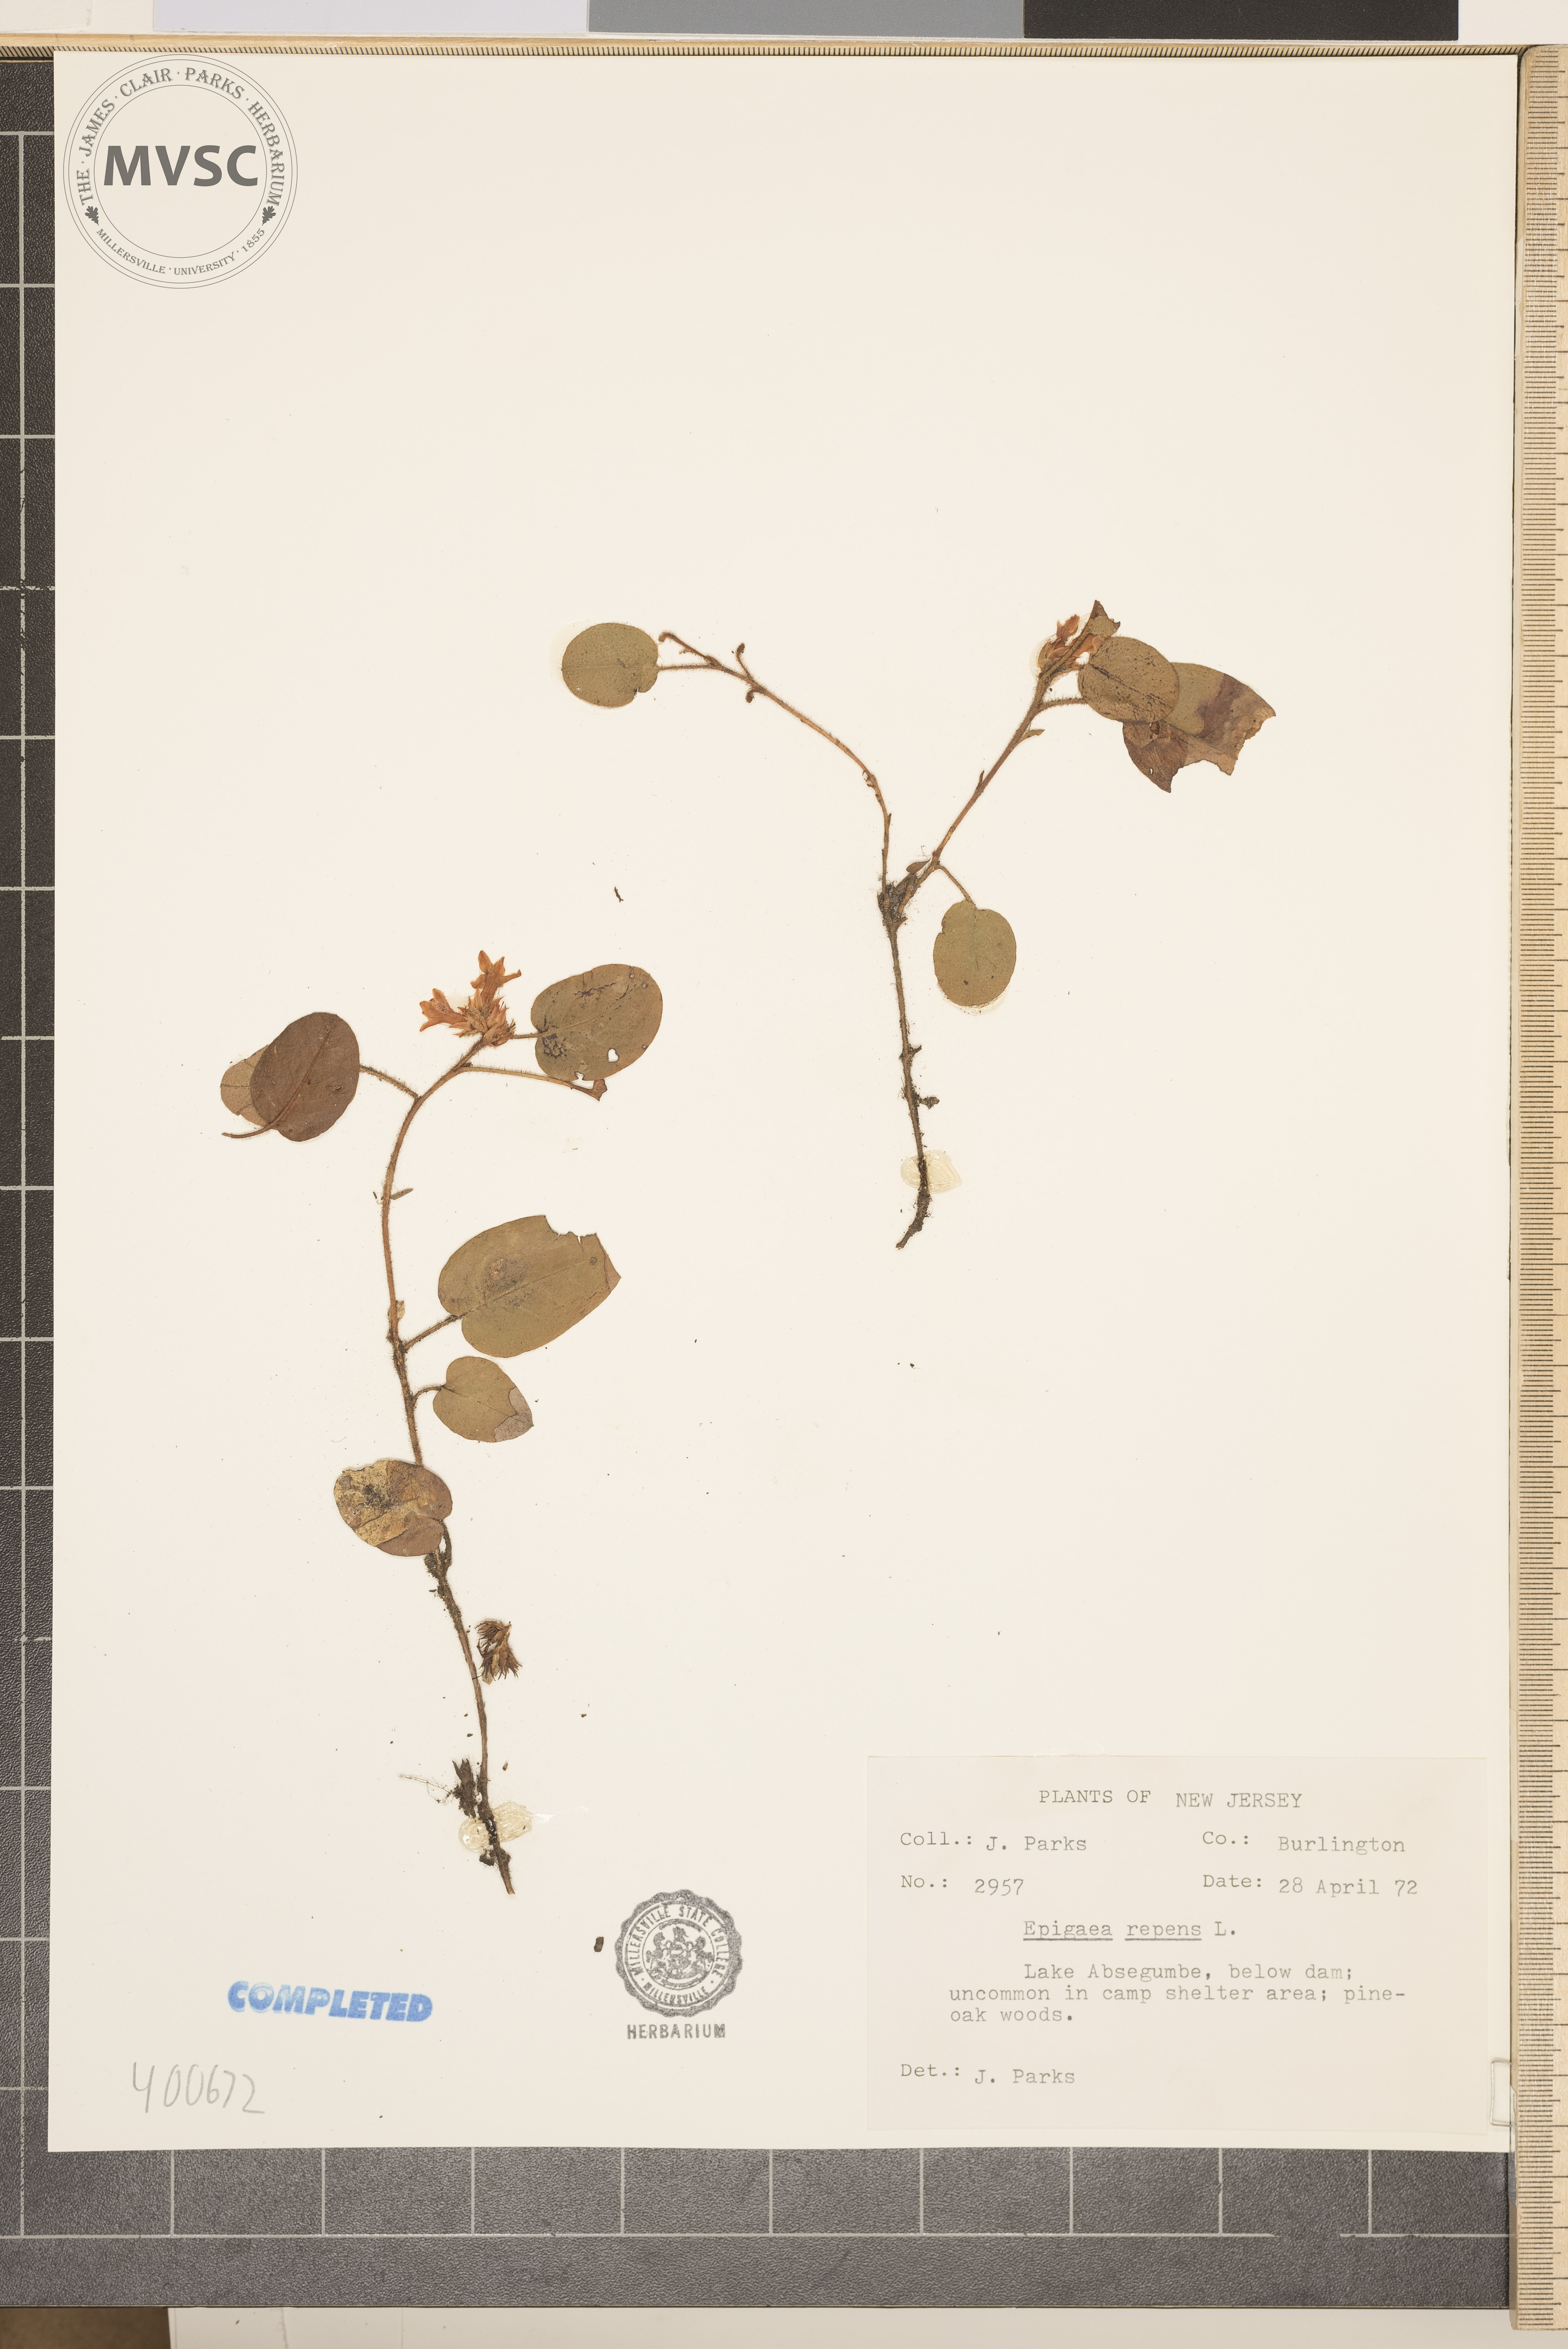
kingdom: Plantae
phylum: Tracheophyta
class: Magnoliopsida
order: Ericales
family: Ericaceae
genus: Epigaea
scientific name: Epigaea repens
